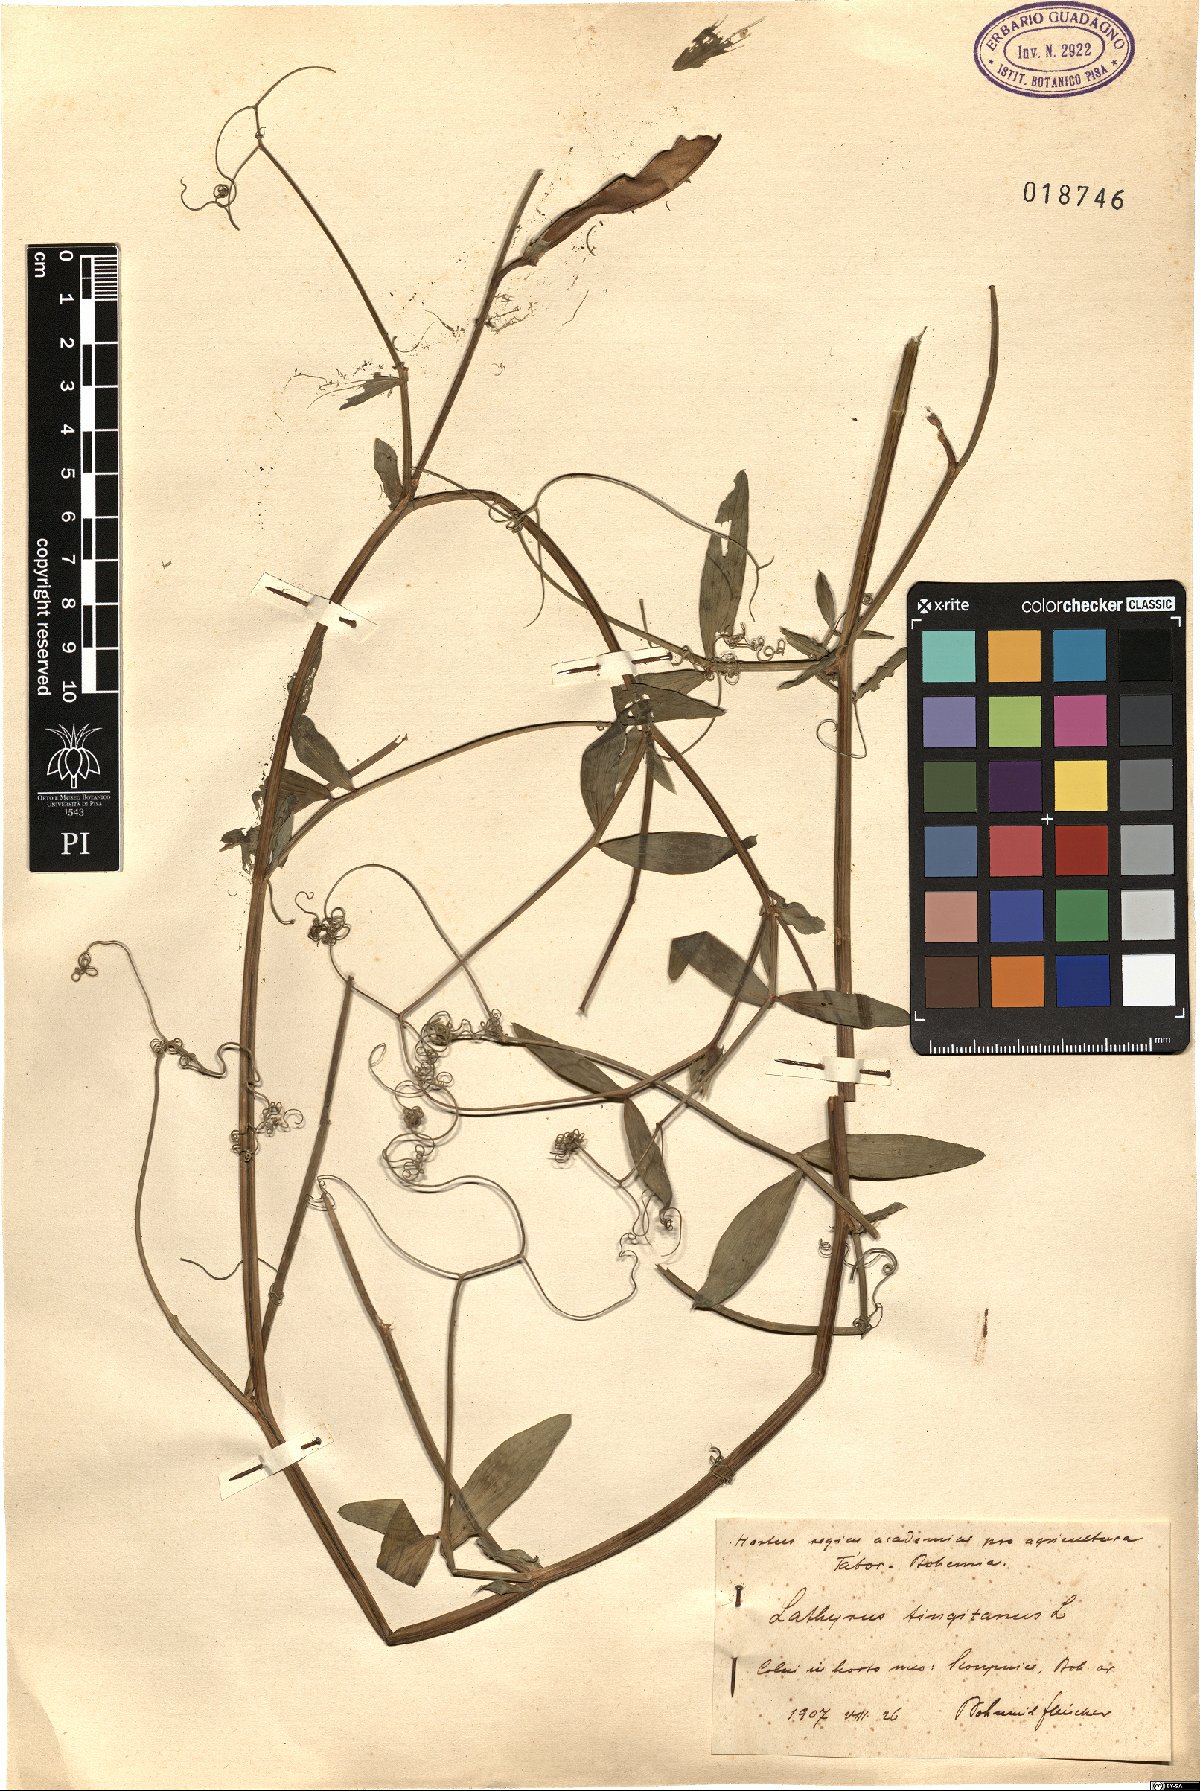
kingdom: Plantae
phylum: Tracheophyta
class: Magnoliopsida
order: Fabales
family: Fabaceae
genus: Lathyrus
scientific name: Lathyrus tingitanus
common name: Tangier pea
